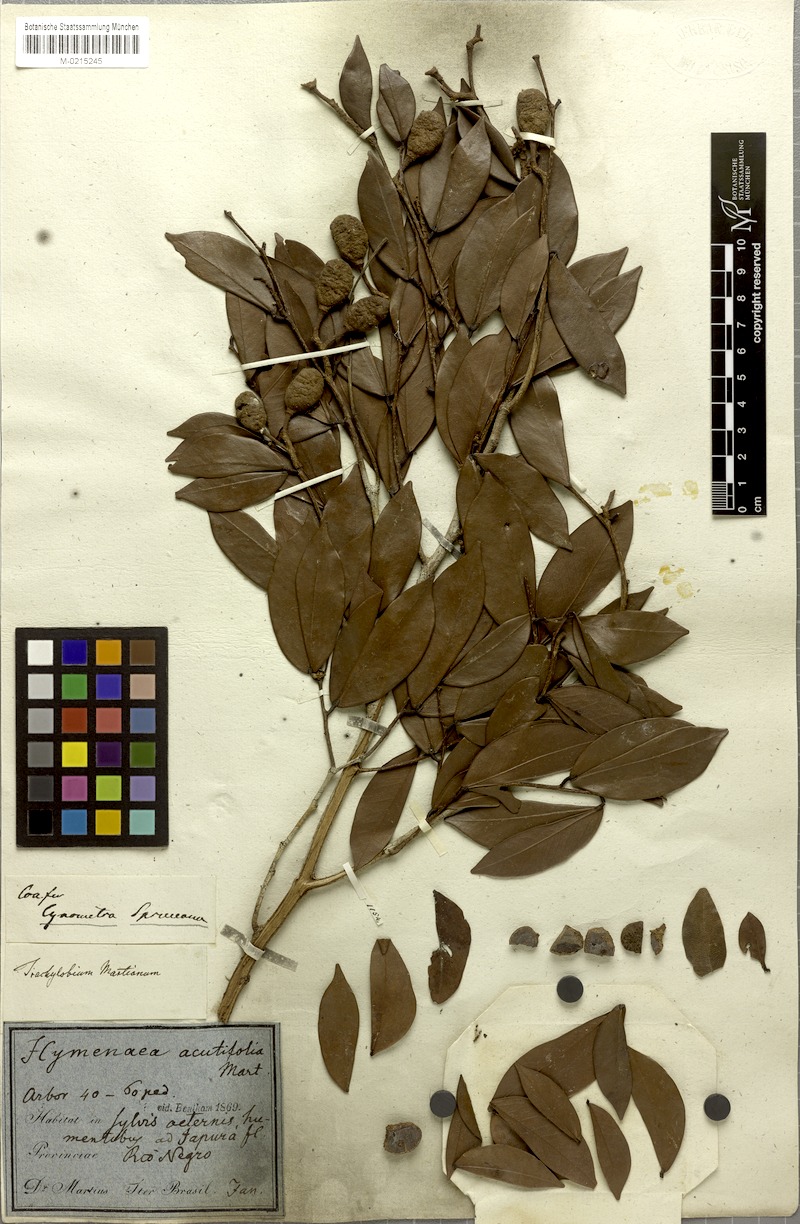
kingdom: Plantae
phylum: Tracheophyta
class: Magnoliopsida
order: Fabales
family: Fabaceae
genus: Hymenaea
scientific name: Hymenaea martiana
